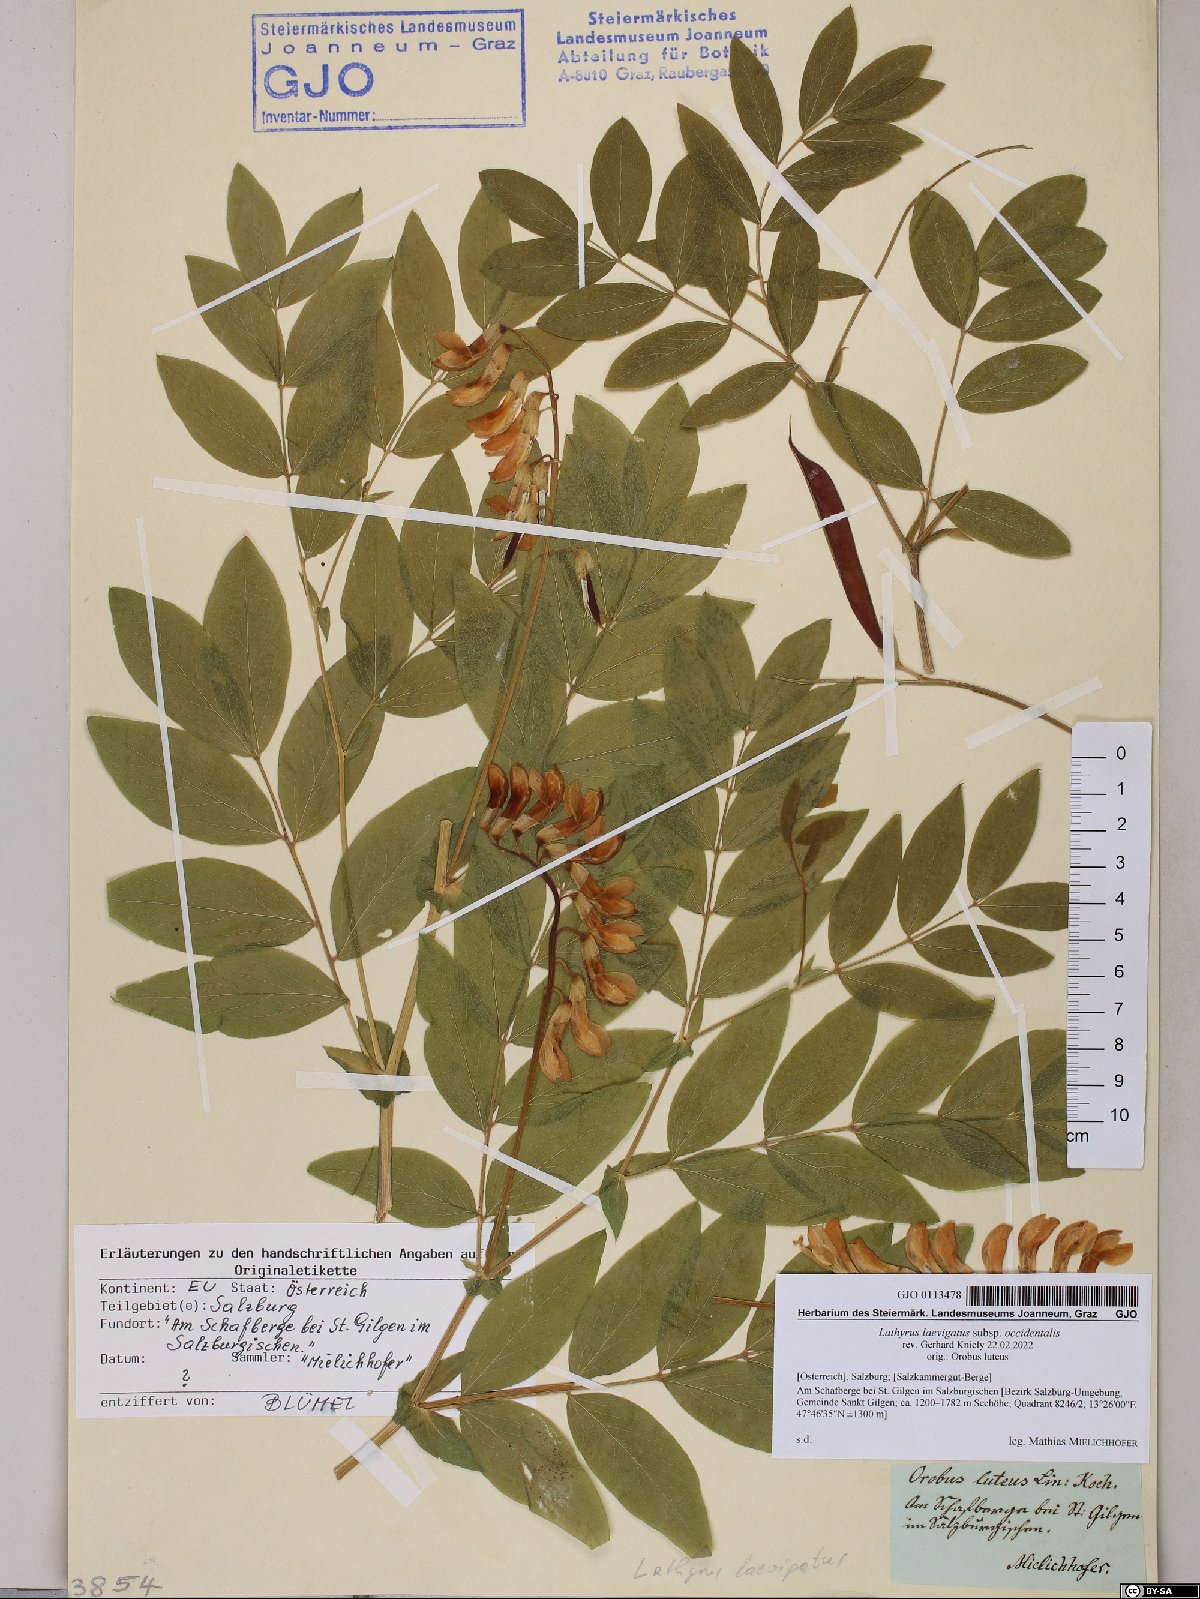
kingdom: Plantae
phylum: Tracheophyta
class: Magnoliopsida
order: Fabales
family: Fabaceae
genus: Lathyrus
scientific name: Lathyrus laevigatus
